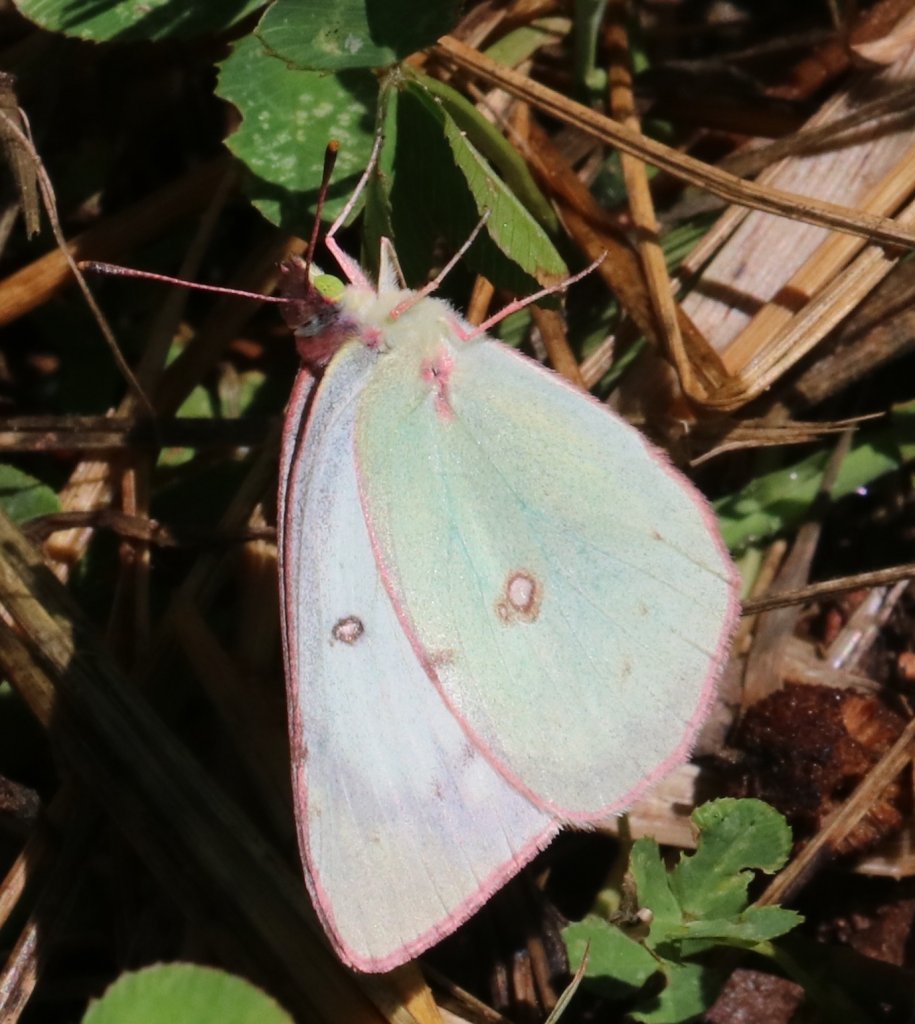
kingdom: Animalia
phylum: Arthropoda
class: Insecta
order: Lepidoptera
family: Pieridae
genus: Colias
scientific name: Colias
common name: Clouded Yellows
